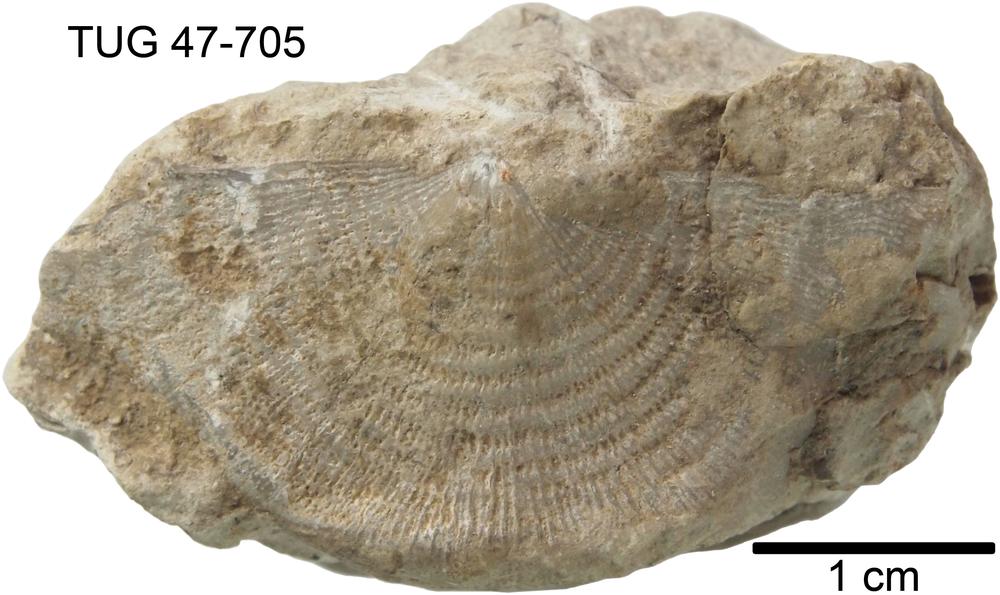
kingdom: Animalia
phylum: Brachiopoda
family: Strophomenidae
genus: Leptaena
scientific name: Leptaena
